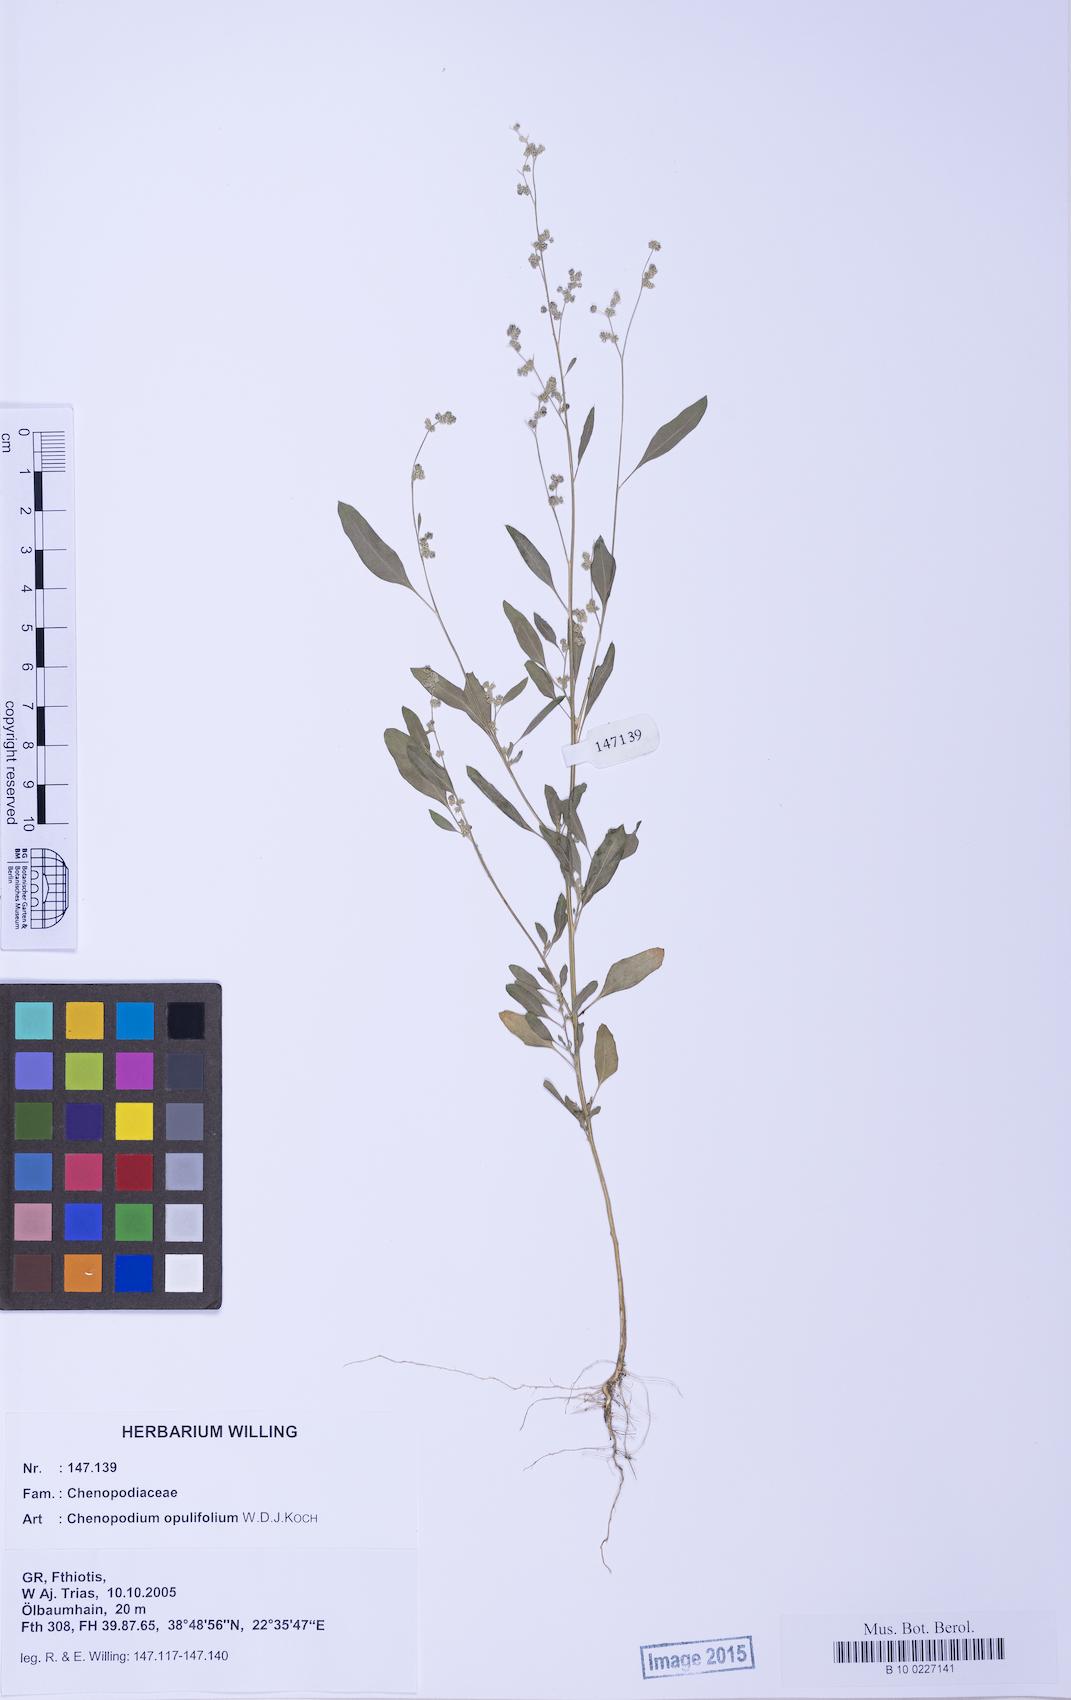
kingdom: Plantae
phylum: Tracheophyta
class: Magnoliopsida
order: Caryophyllales
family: Amaranthaceae
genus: Chenopodium
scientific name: Chenopodium album
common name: Fat-hen
